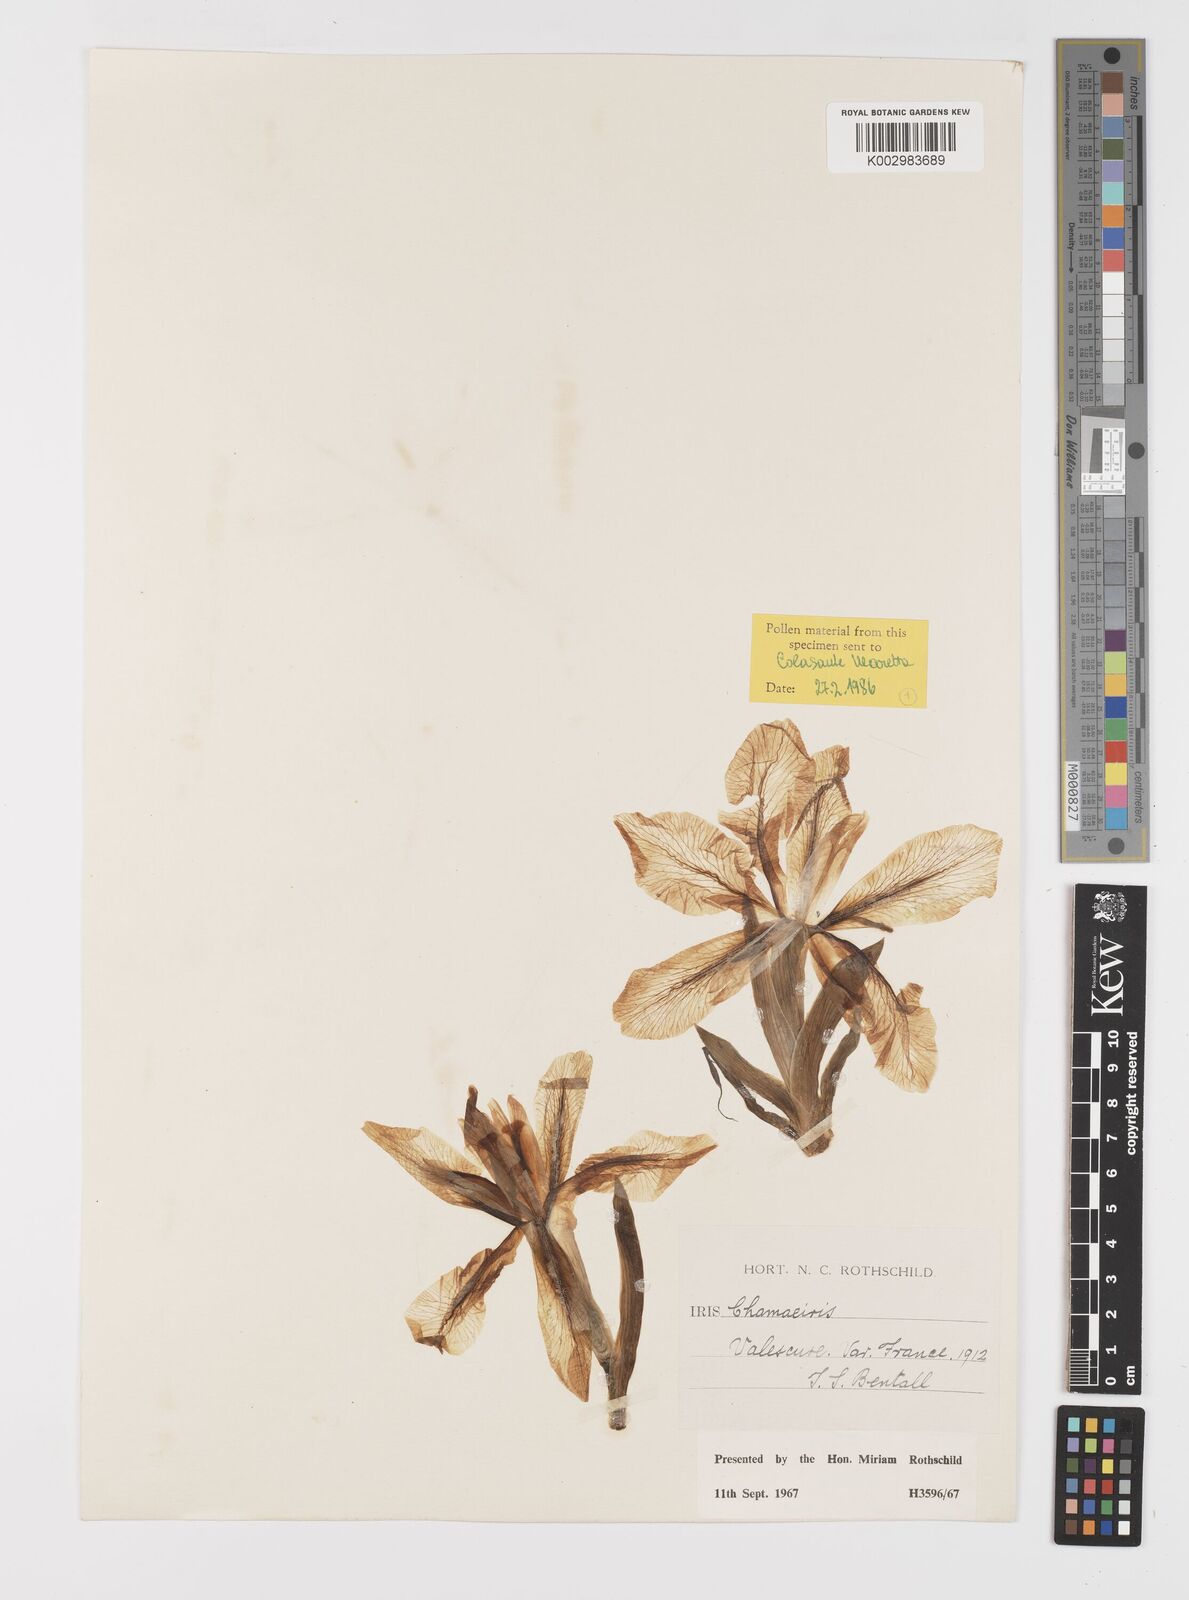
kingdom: Plantae
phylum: Tracheophyta
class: Liliopsida
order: Asparagales
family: Iridaceae
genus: Iris
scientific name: Iris lutescens
